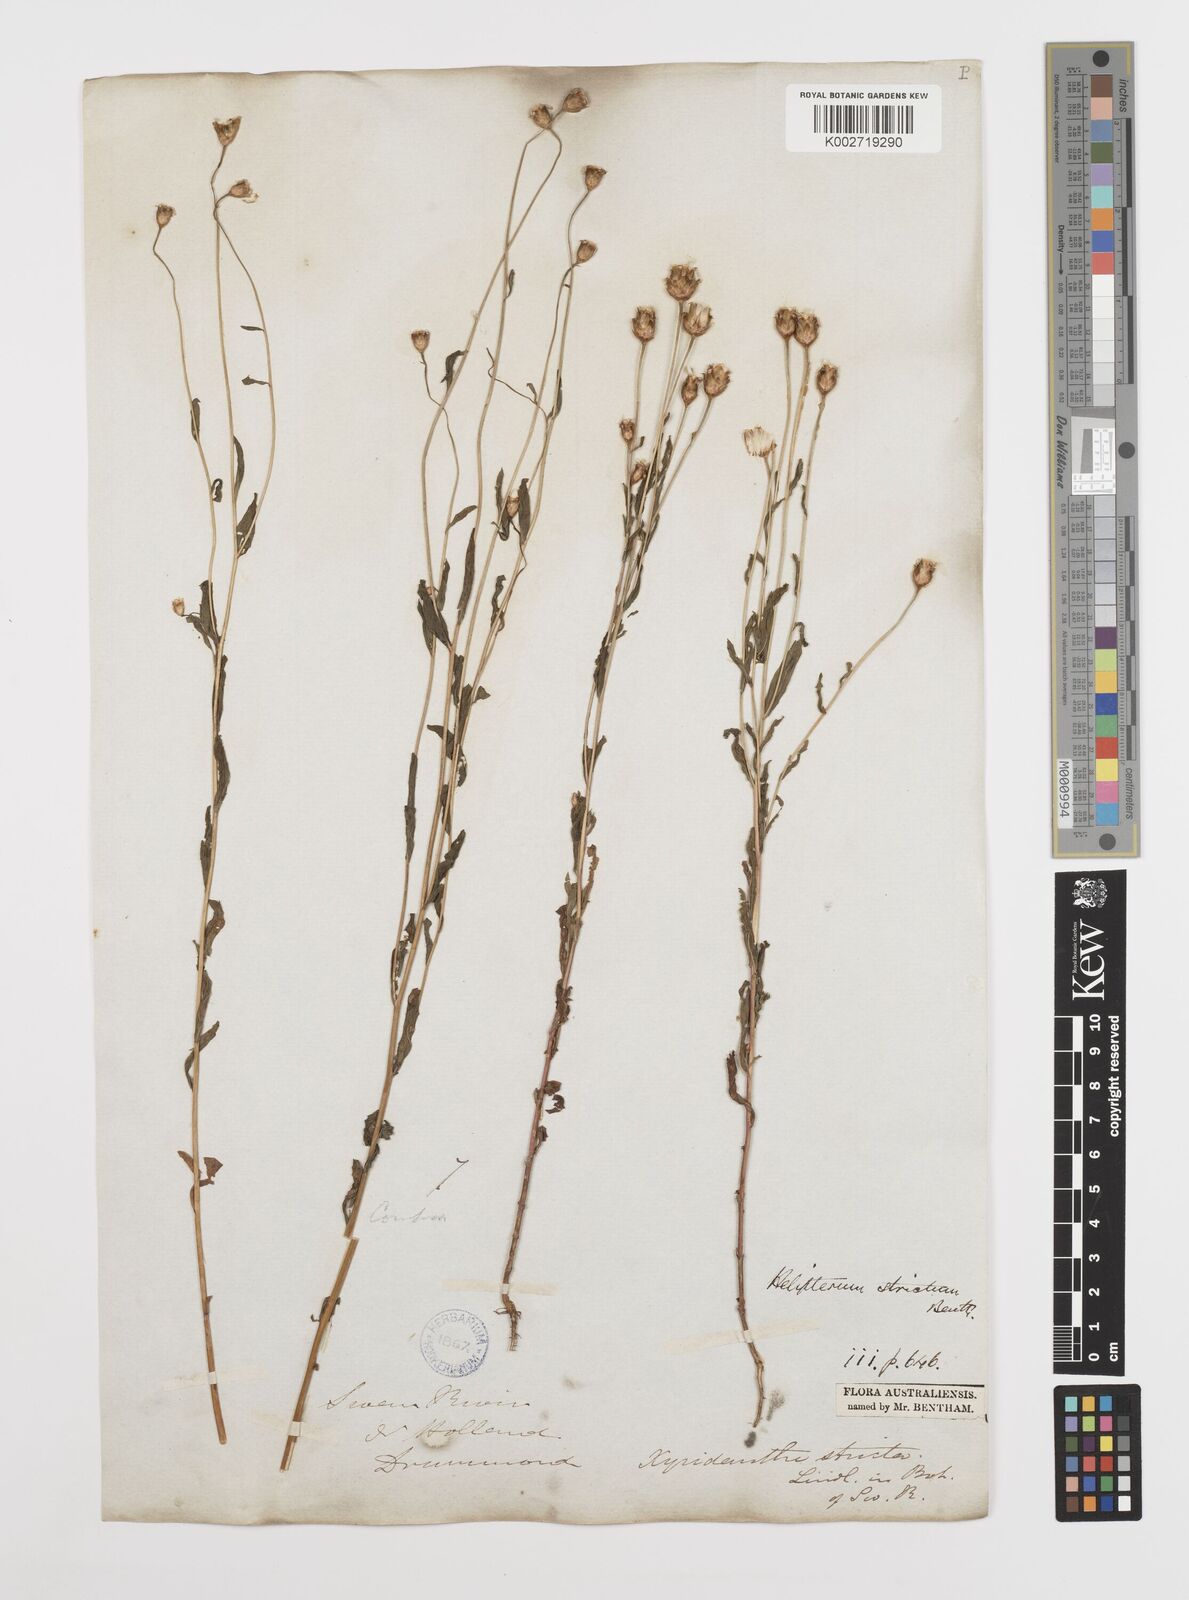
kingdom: Plantae
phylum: Tracheophyta
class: Magnoliopsida
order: Asterales
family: Asteraceae
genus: Rhodanthe
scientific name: Rhodanthe stricta
